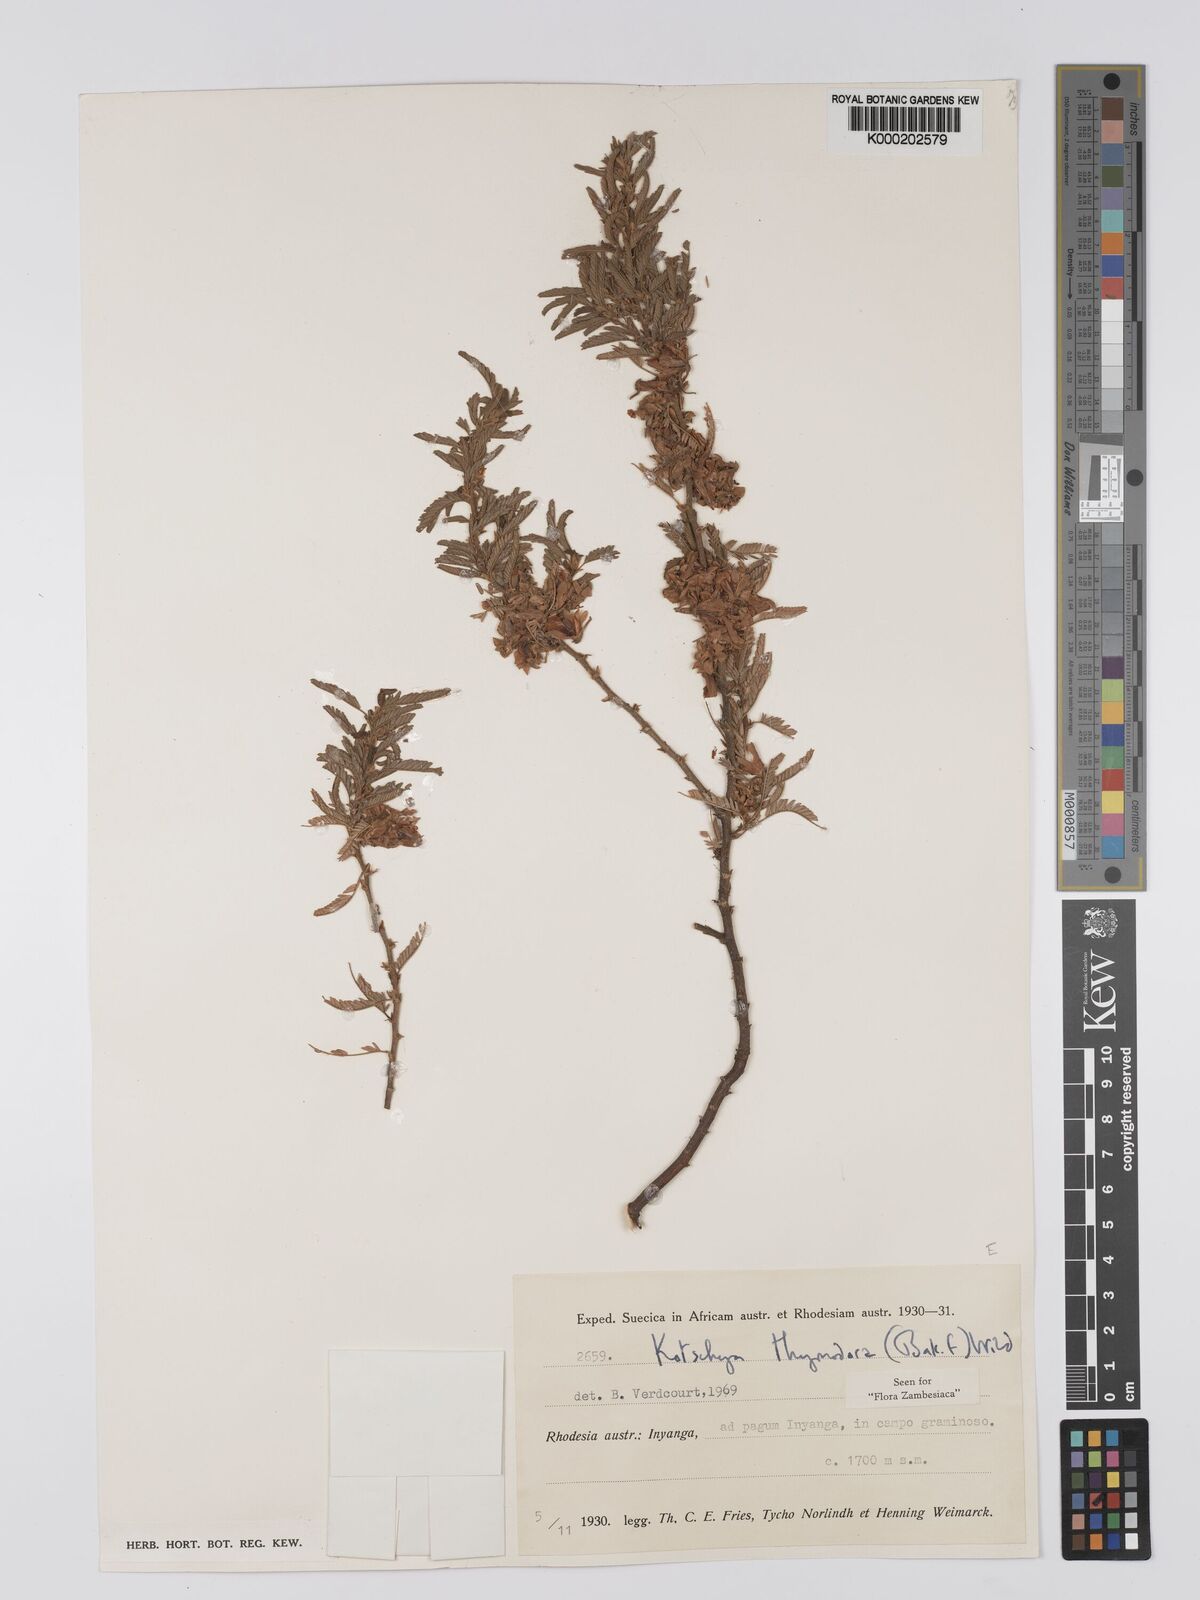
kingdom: Plantae
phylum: Tracheophyta
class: Magnoliopsida
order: Fabales
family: Fabaceae
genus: Kotschya
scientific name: Kotschya thymodora
